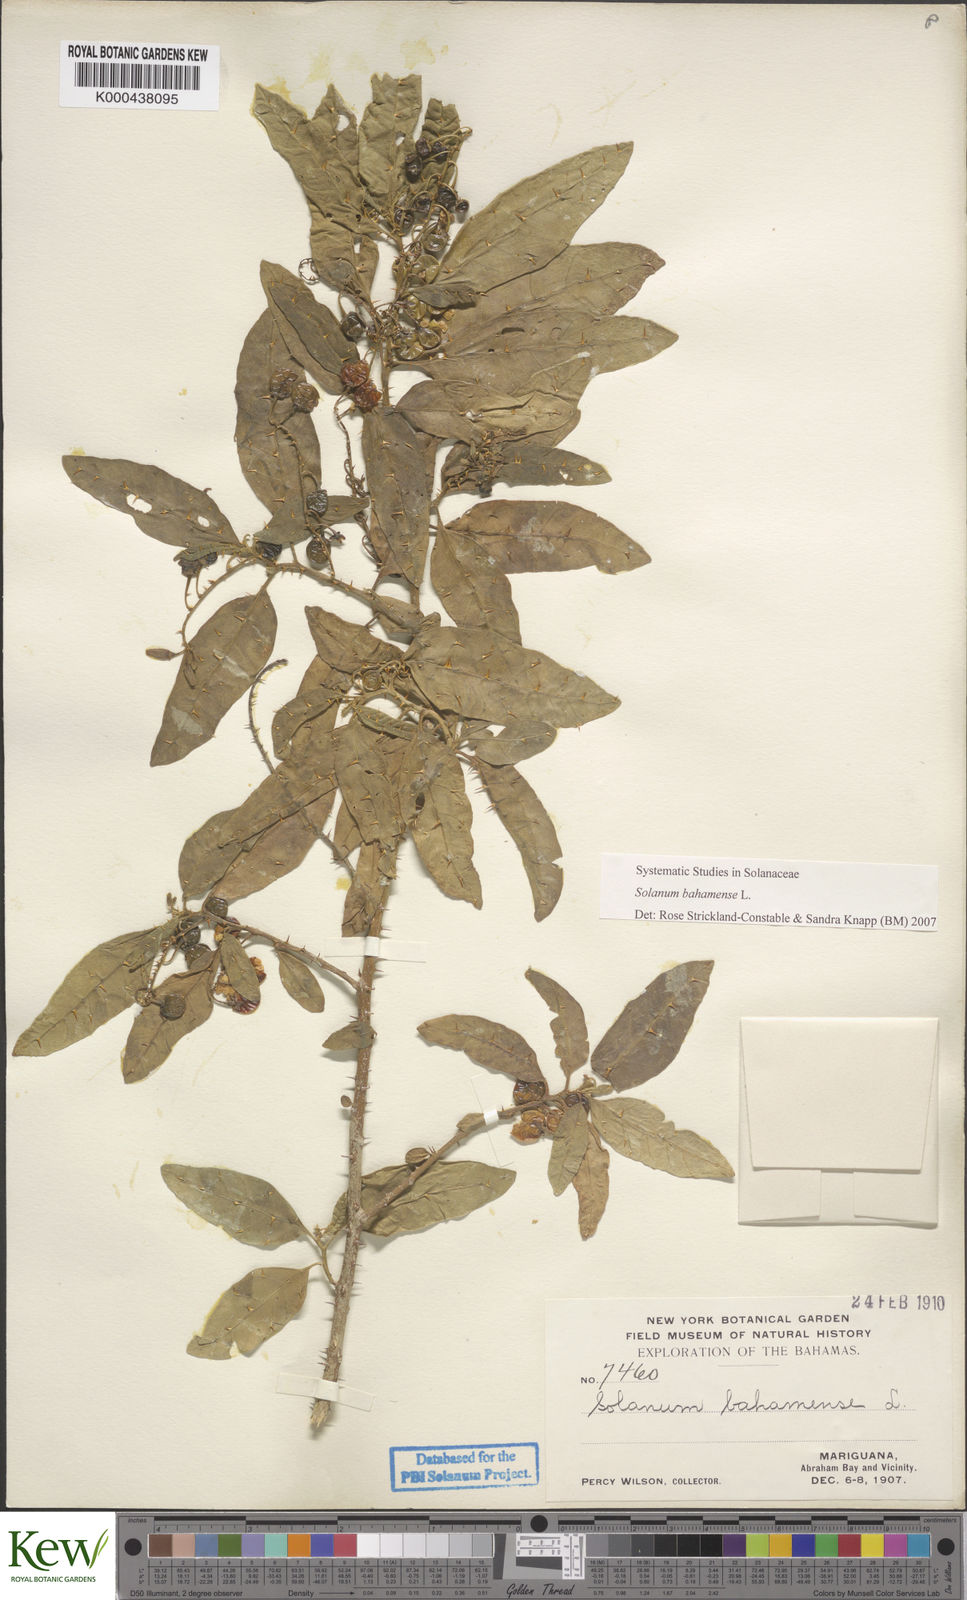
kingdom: Plantae
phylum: Tracheophyta
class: Magnoliopsida
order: Solanales
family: Solanaceae
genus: Solanum
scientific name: Solanum bahamense
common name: Canker-berry
